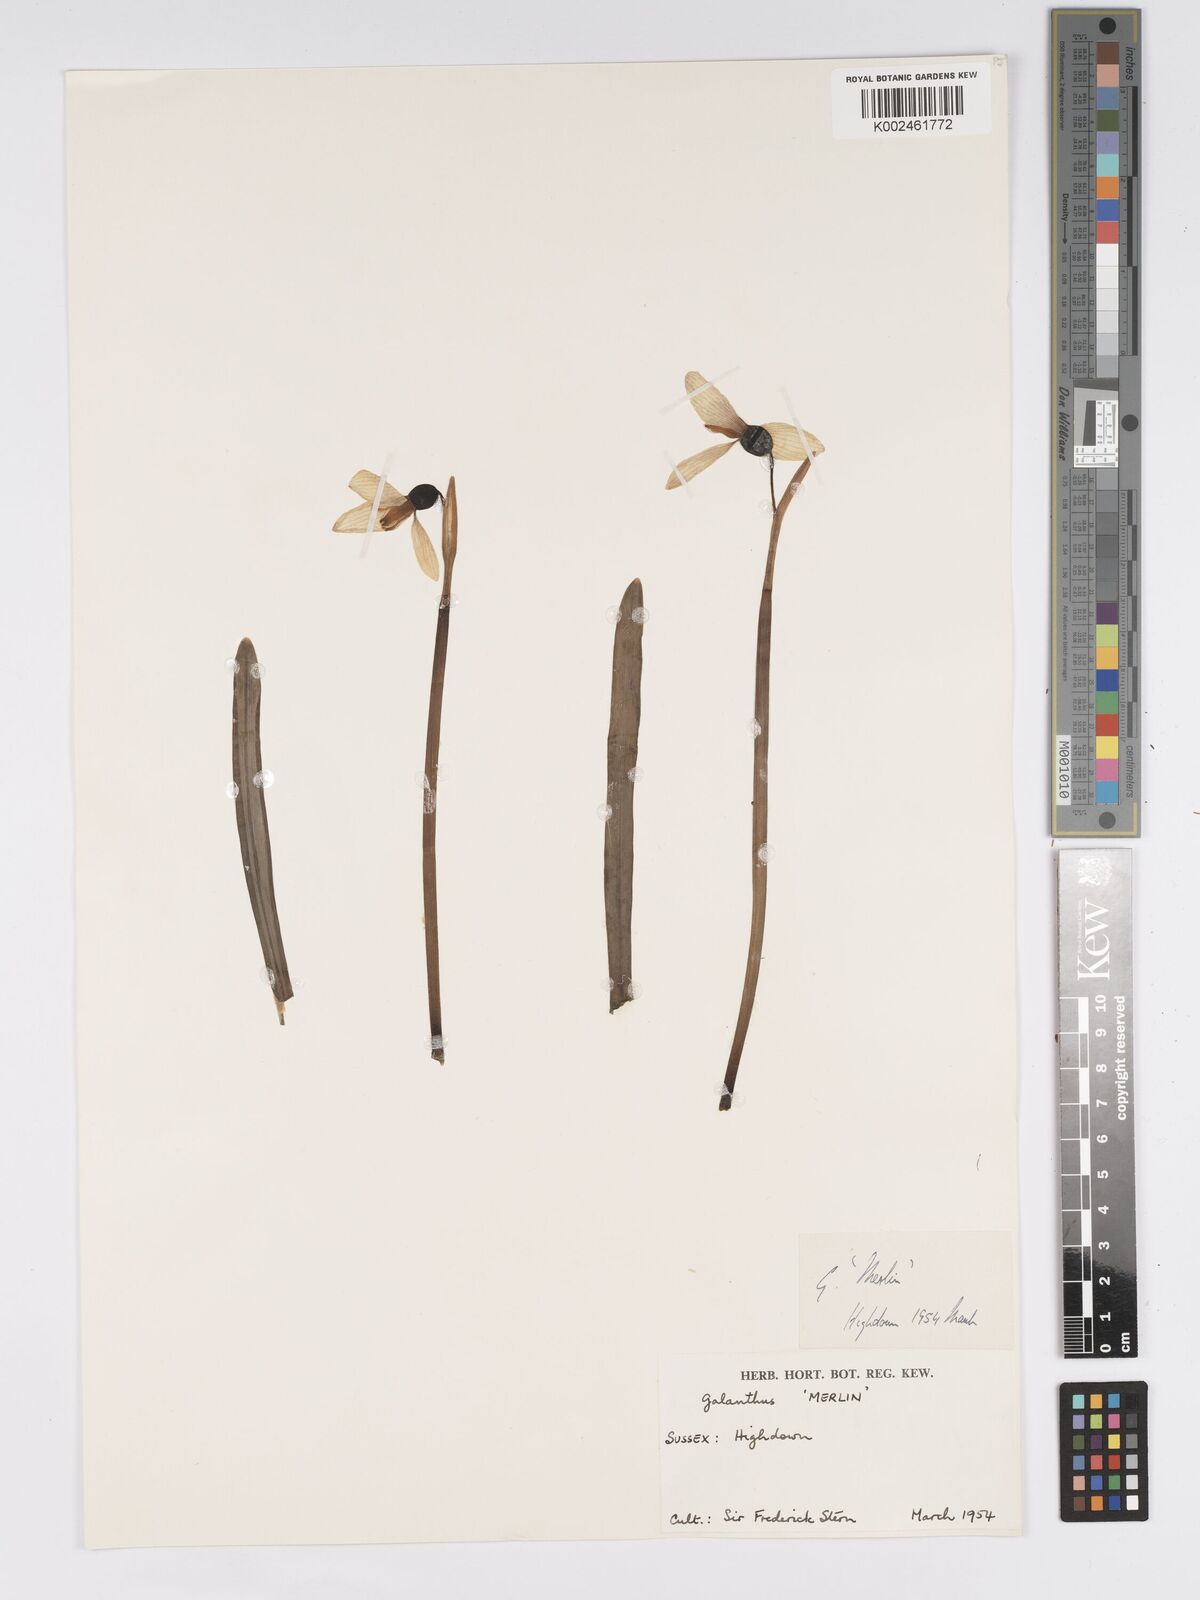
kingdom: Plantae
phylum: Tracheophyta
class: Liliopsida
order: Asparagales
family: Amaryllidaceae
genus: Galanthus
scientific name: Galanthus
